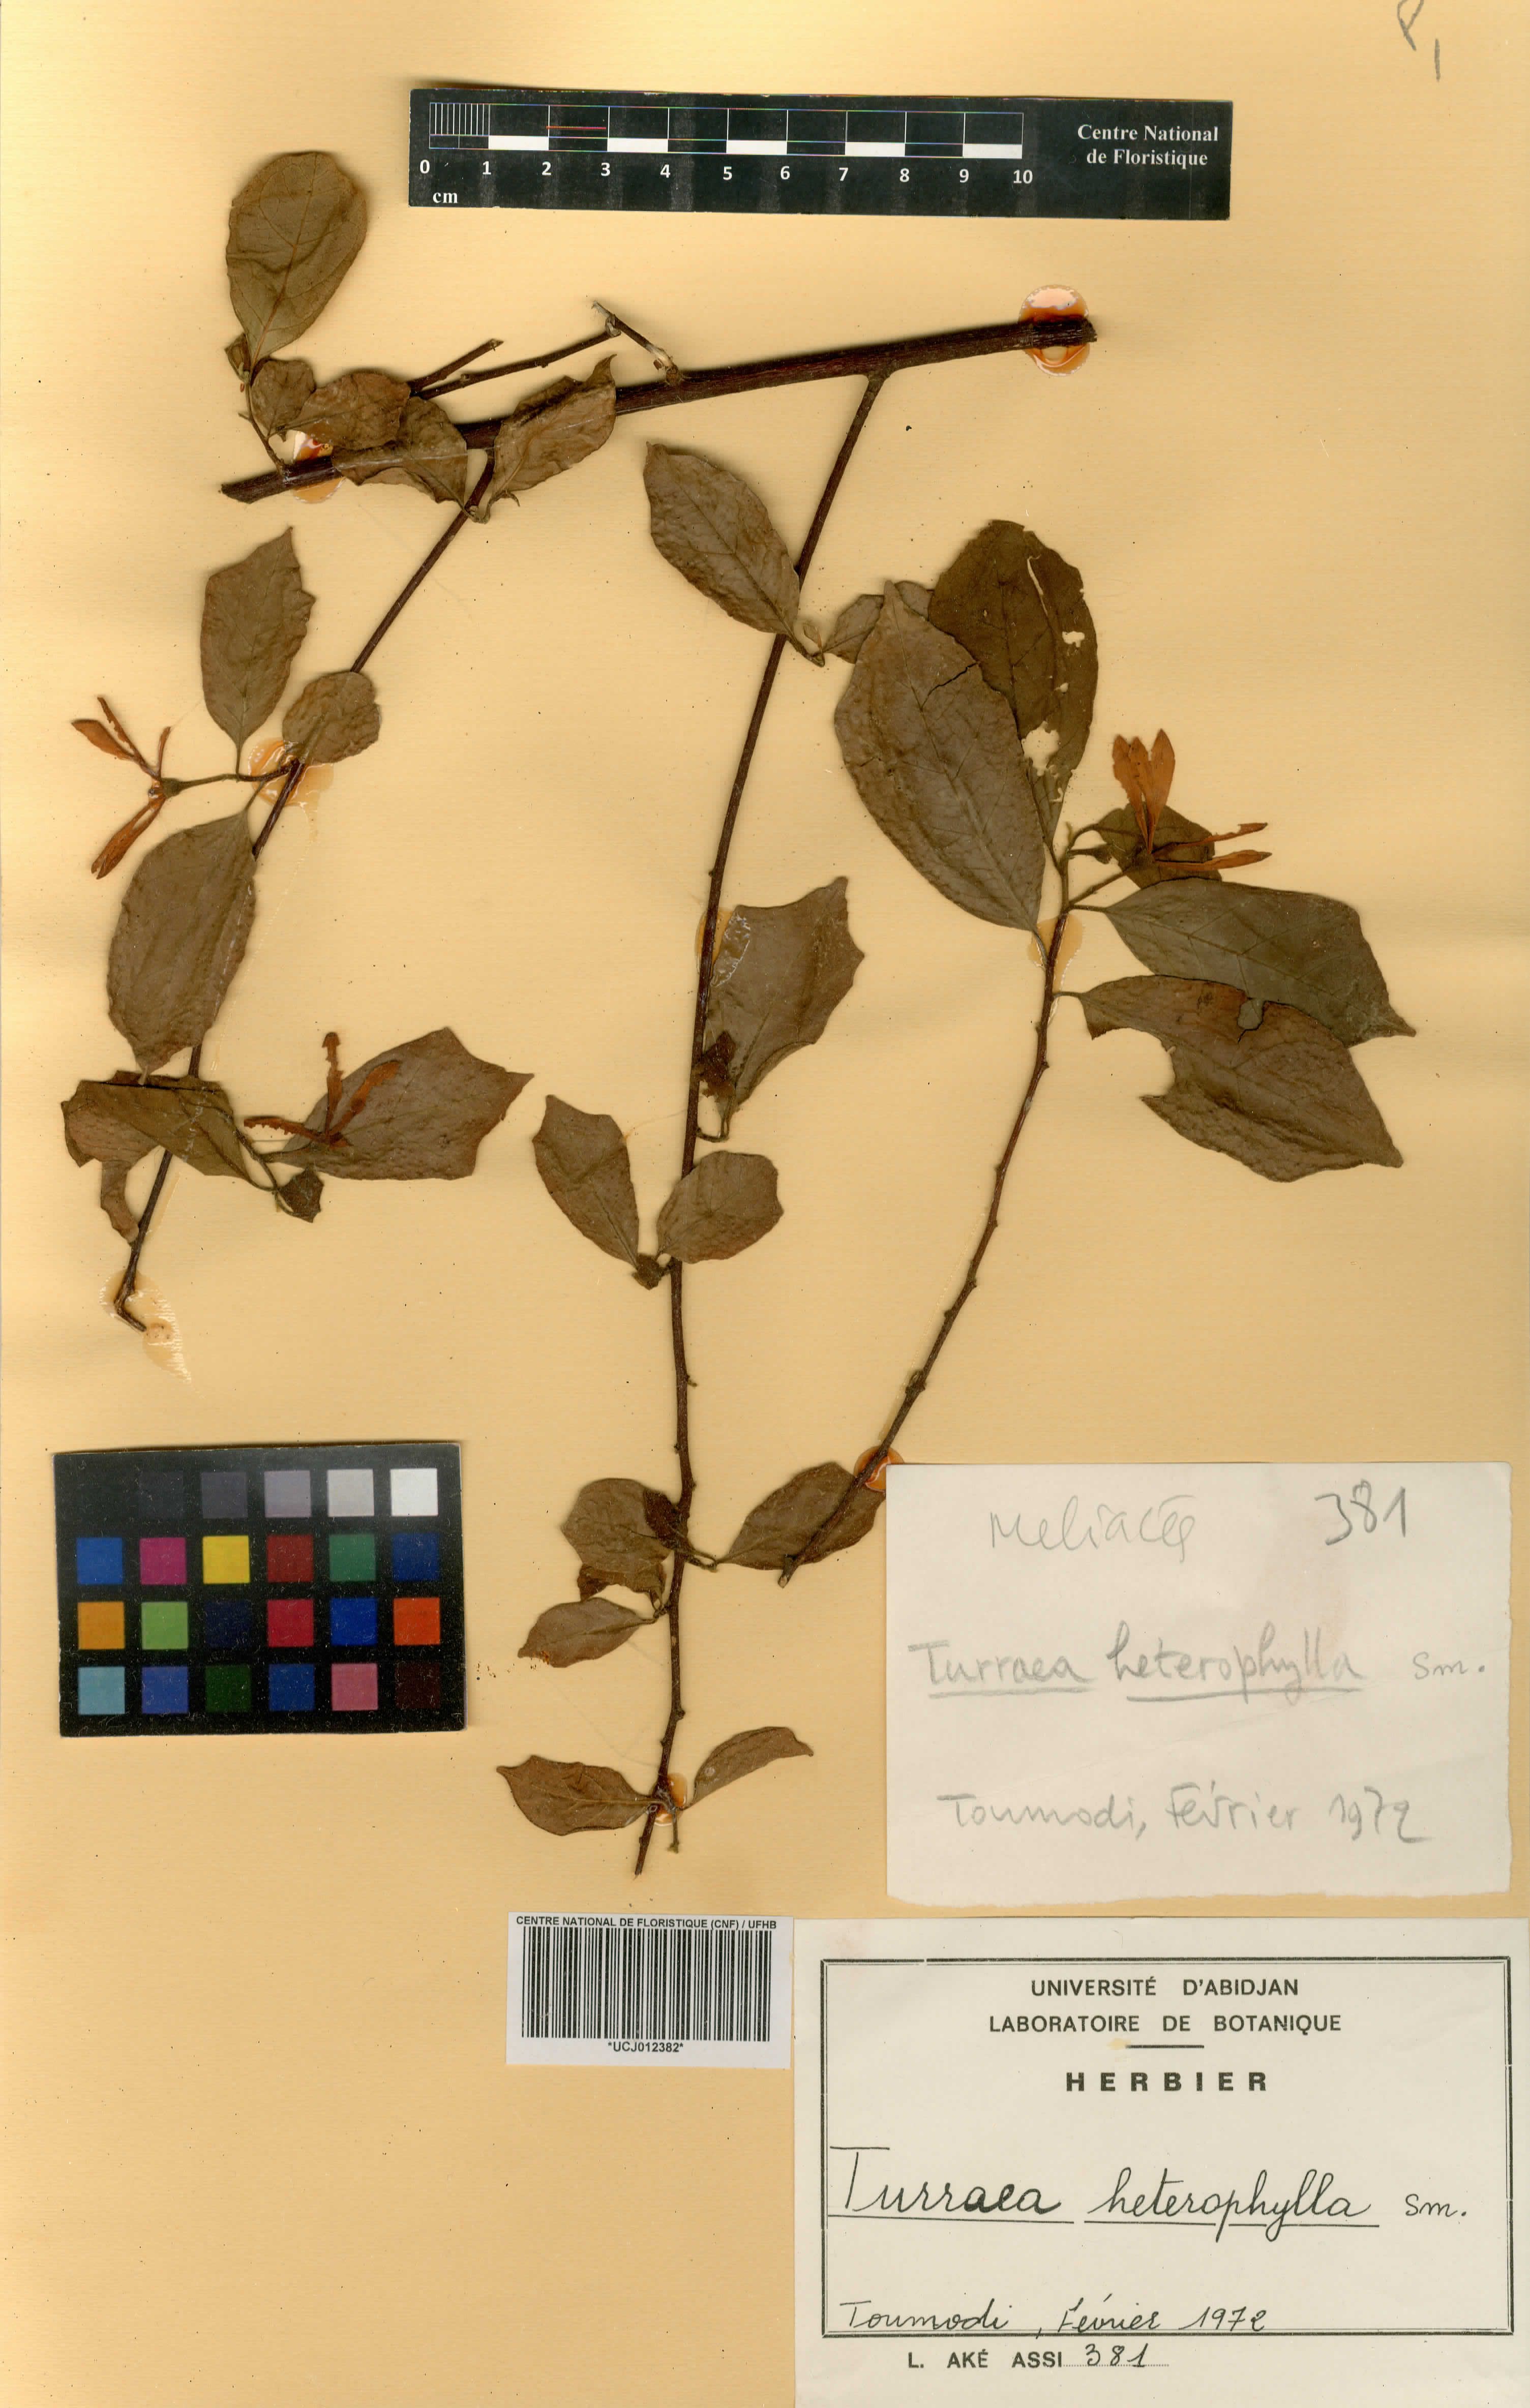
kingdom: Plantae
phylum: Tracheophyta
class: Magnoliopsida
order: Sapindales
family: Meliaceae
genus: Turraea
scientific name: Turraea heterophylla
